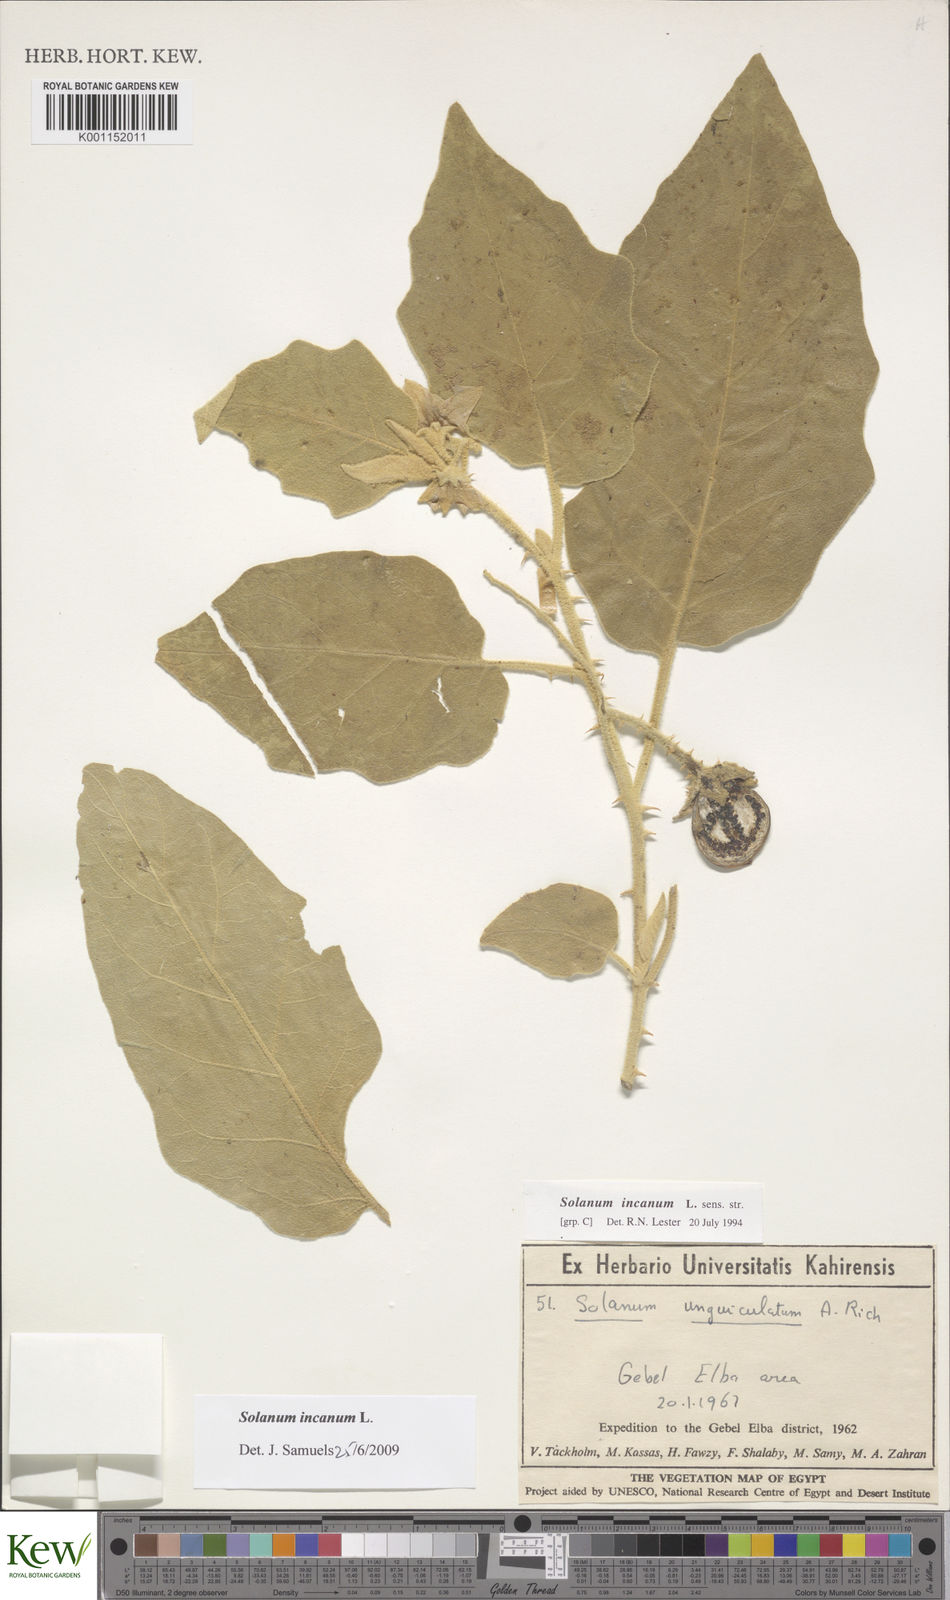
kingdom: Plantae
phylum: Tracheophyta
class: Magnoliopsida
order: Solanales
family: Solanaceae
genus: Solanum
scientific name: Solanum incanum
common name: Bitter apple
